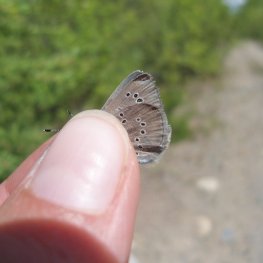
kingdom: Animalia
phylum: Arthropoda
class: Insecta
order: Lepidoptera
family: Lycaenidae
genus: Glaucopsyche
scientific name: Glaucopsyche lygdamus
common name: Silvery Blue
